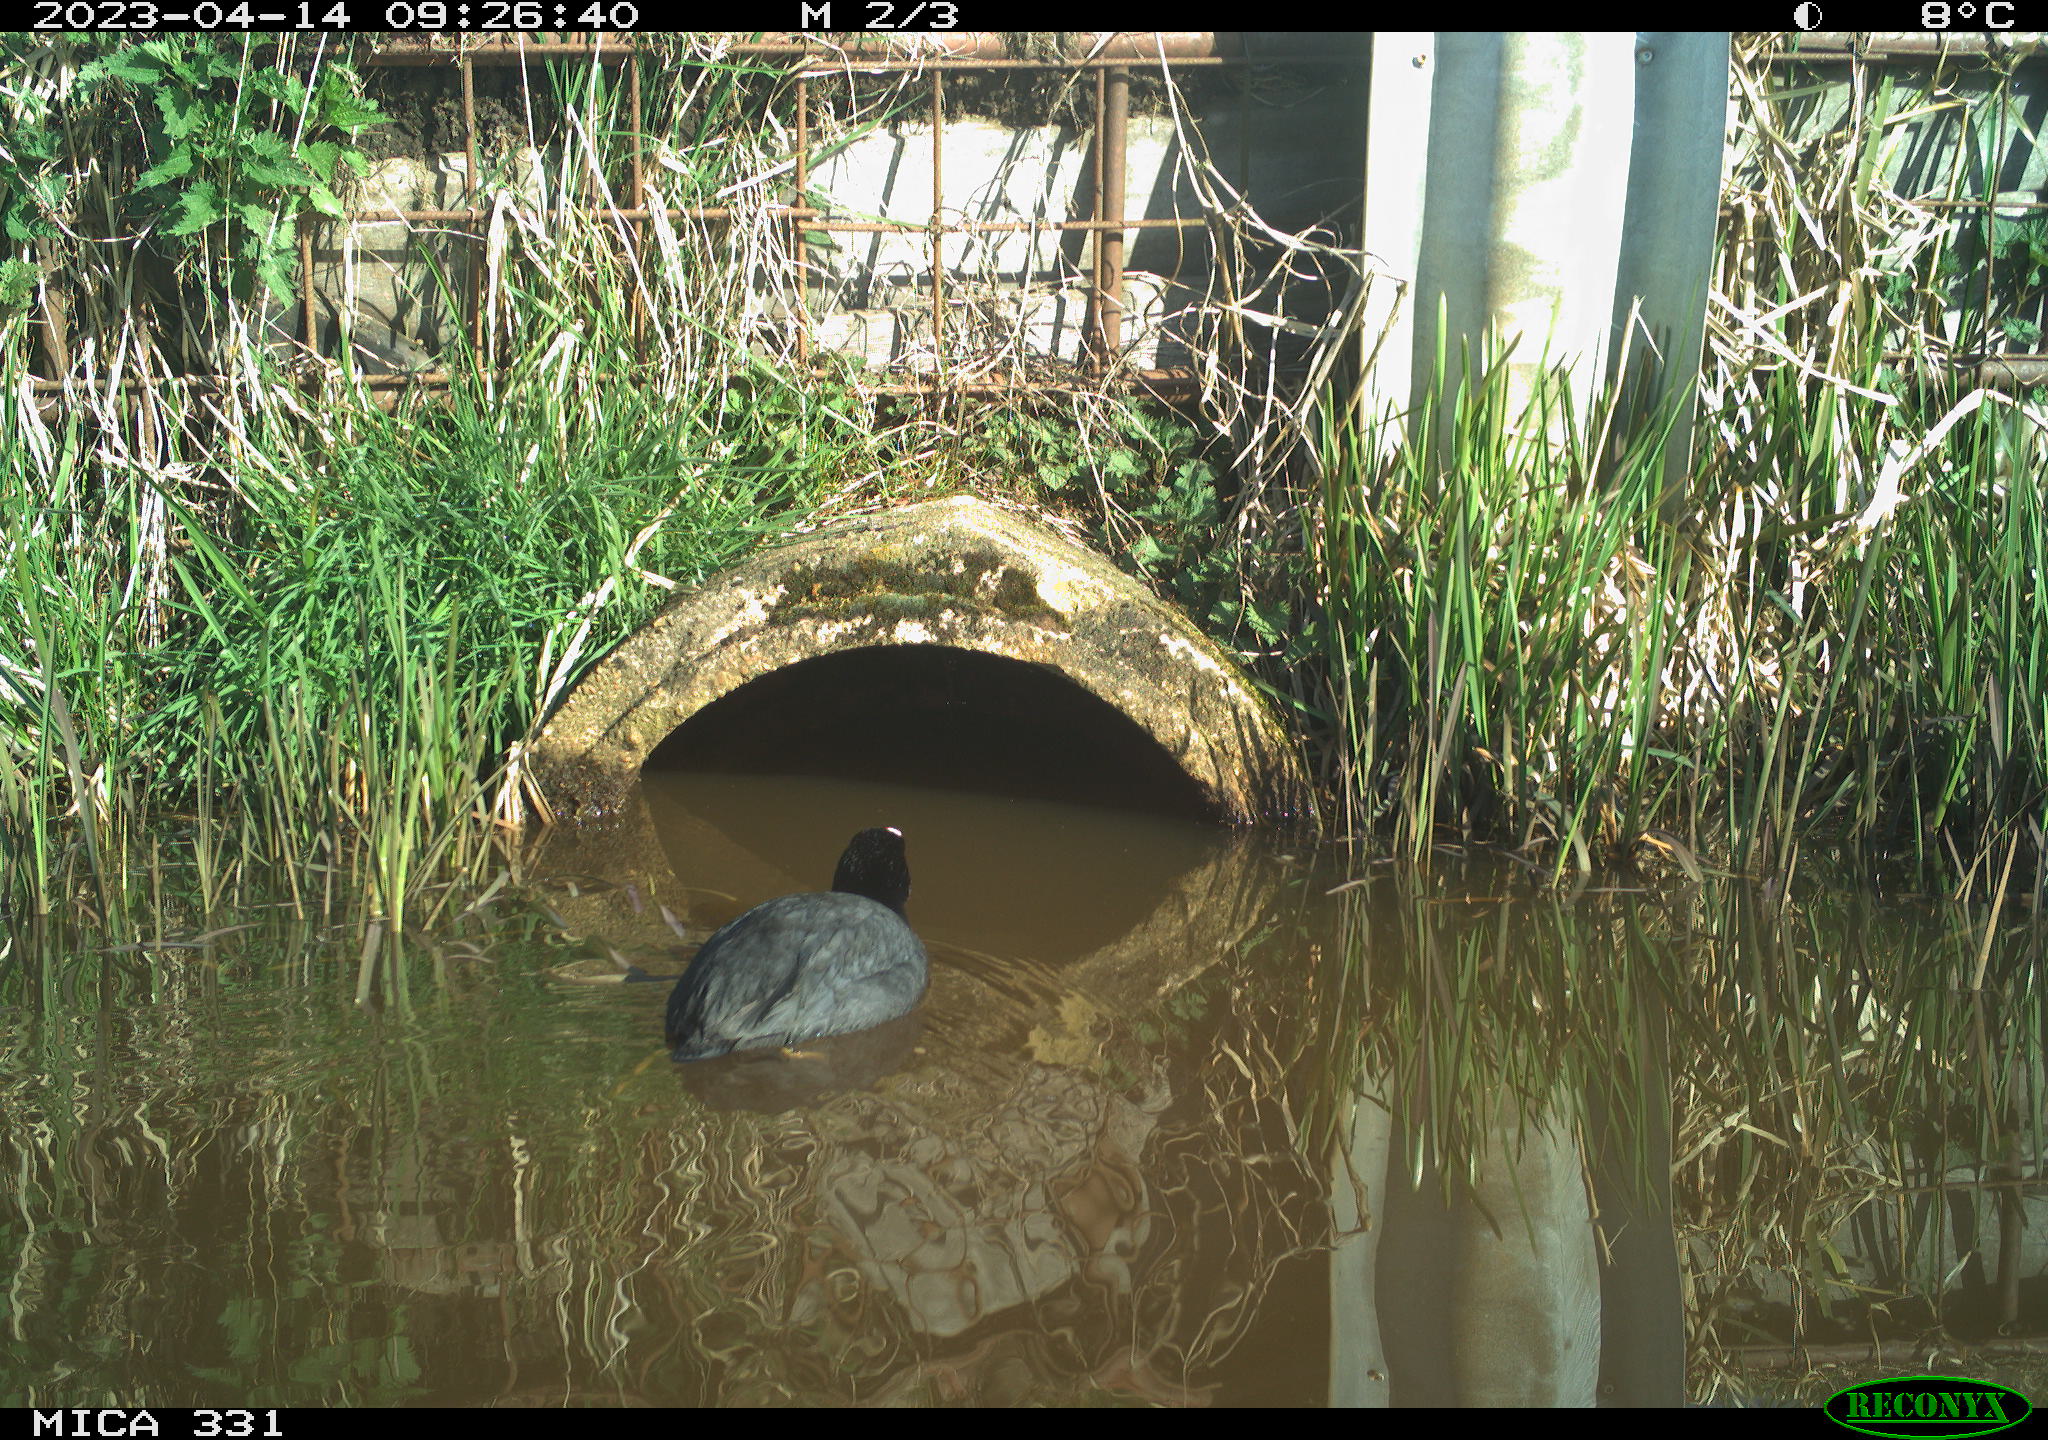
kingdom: Animalia
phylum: Chordata
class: Aves
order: Gruiformes
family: Rallidae
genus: Gallinula
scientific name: Gallinula chloropus
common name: Common moorhen
